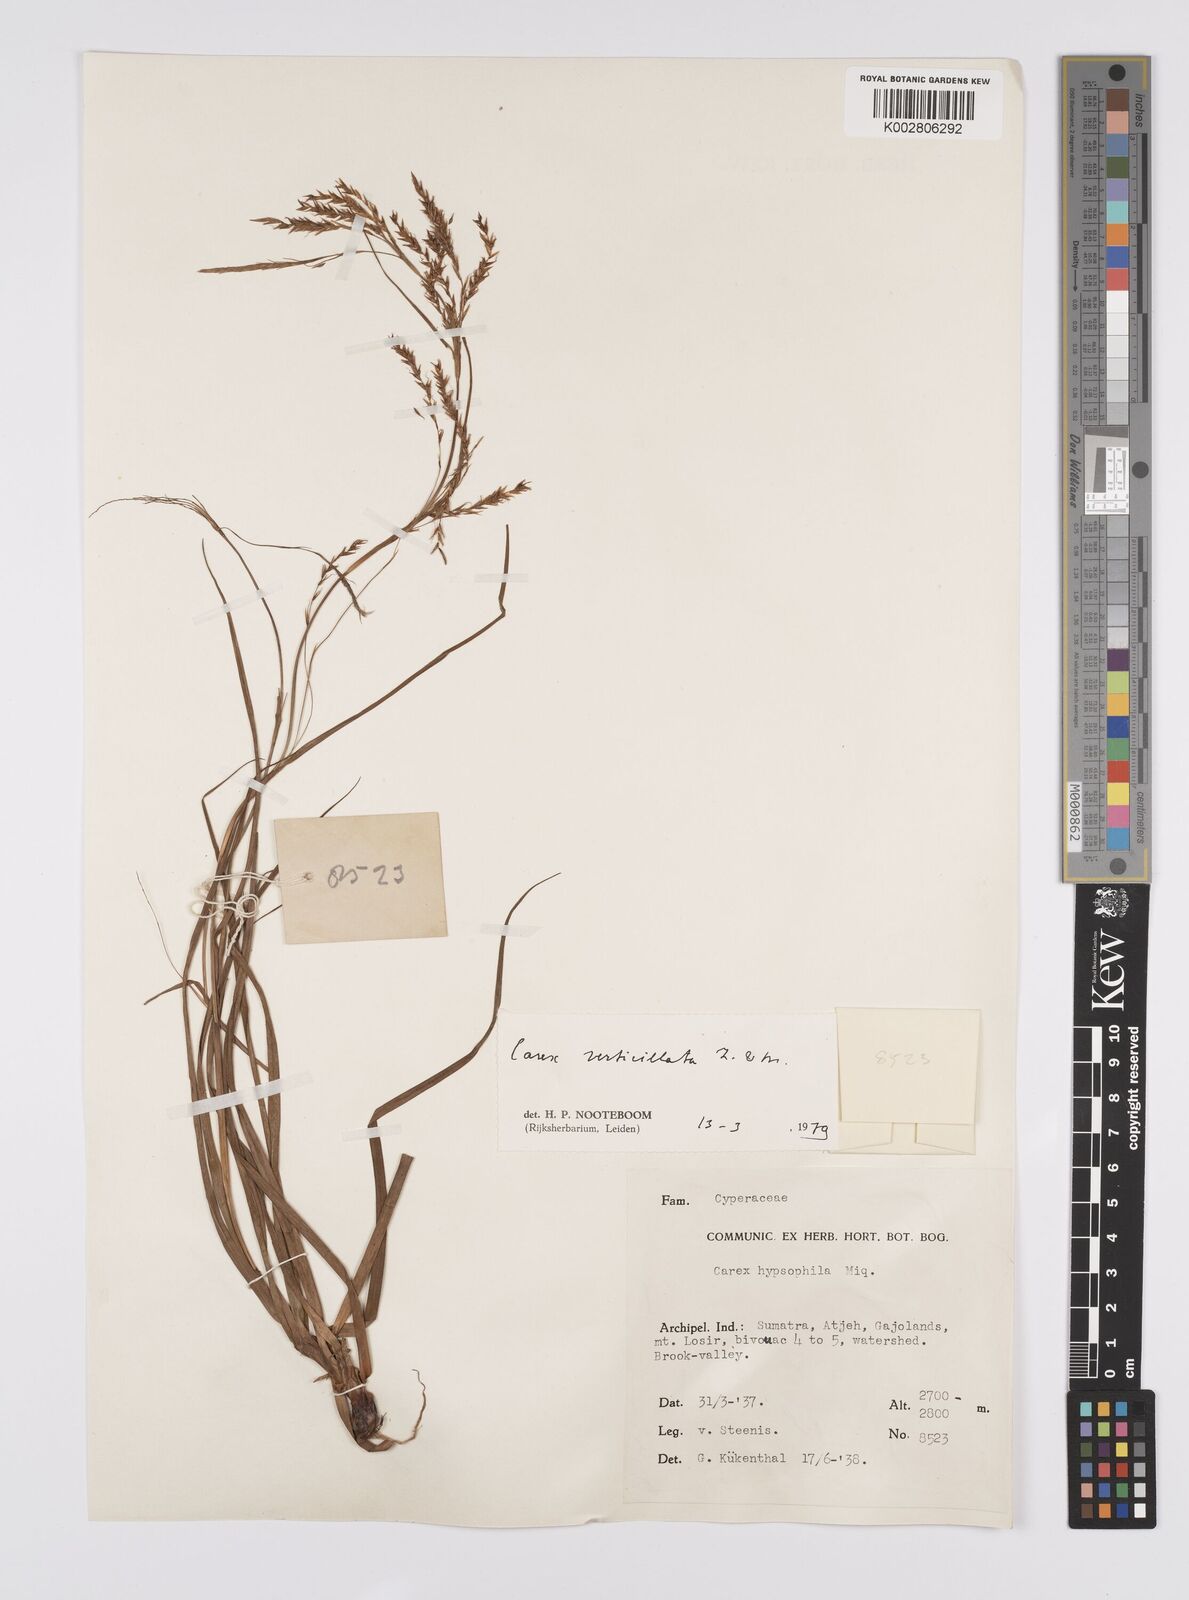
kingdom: Plantae
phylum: Tracheophyta
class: Liliopsida
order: Poales
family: Cyperaceae
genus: Carex
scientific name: Carex verticillata
